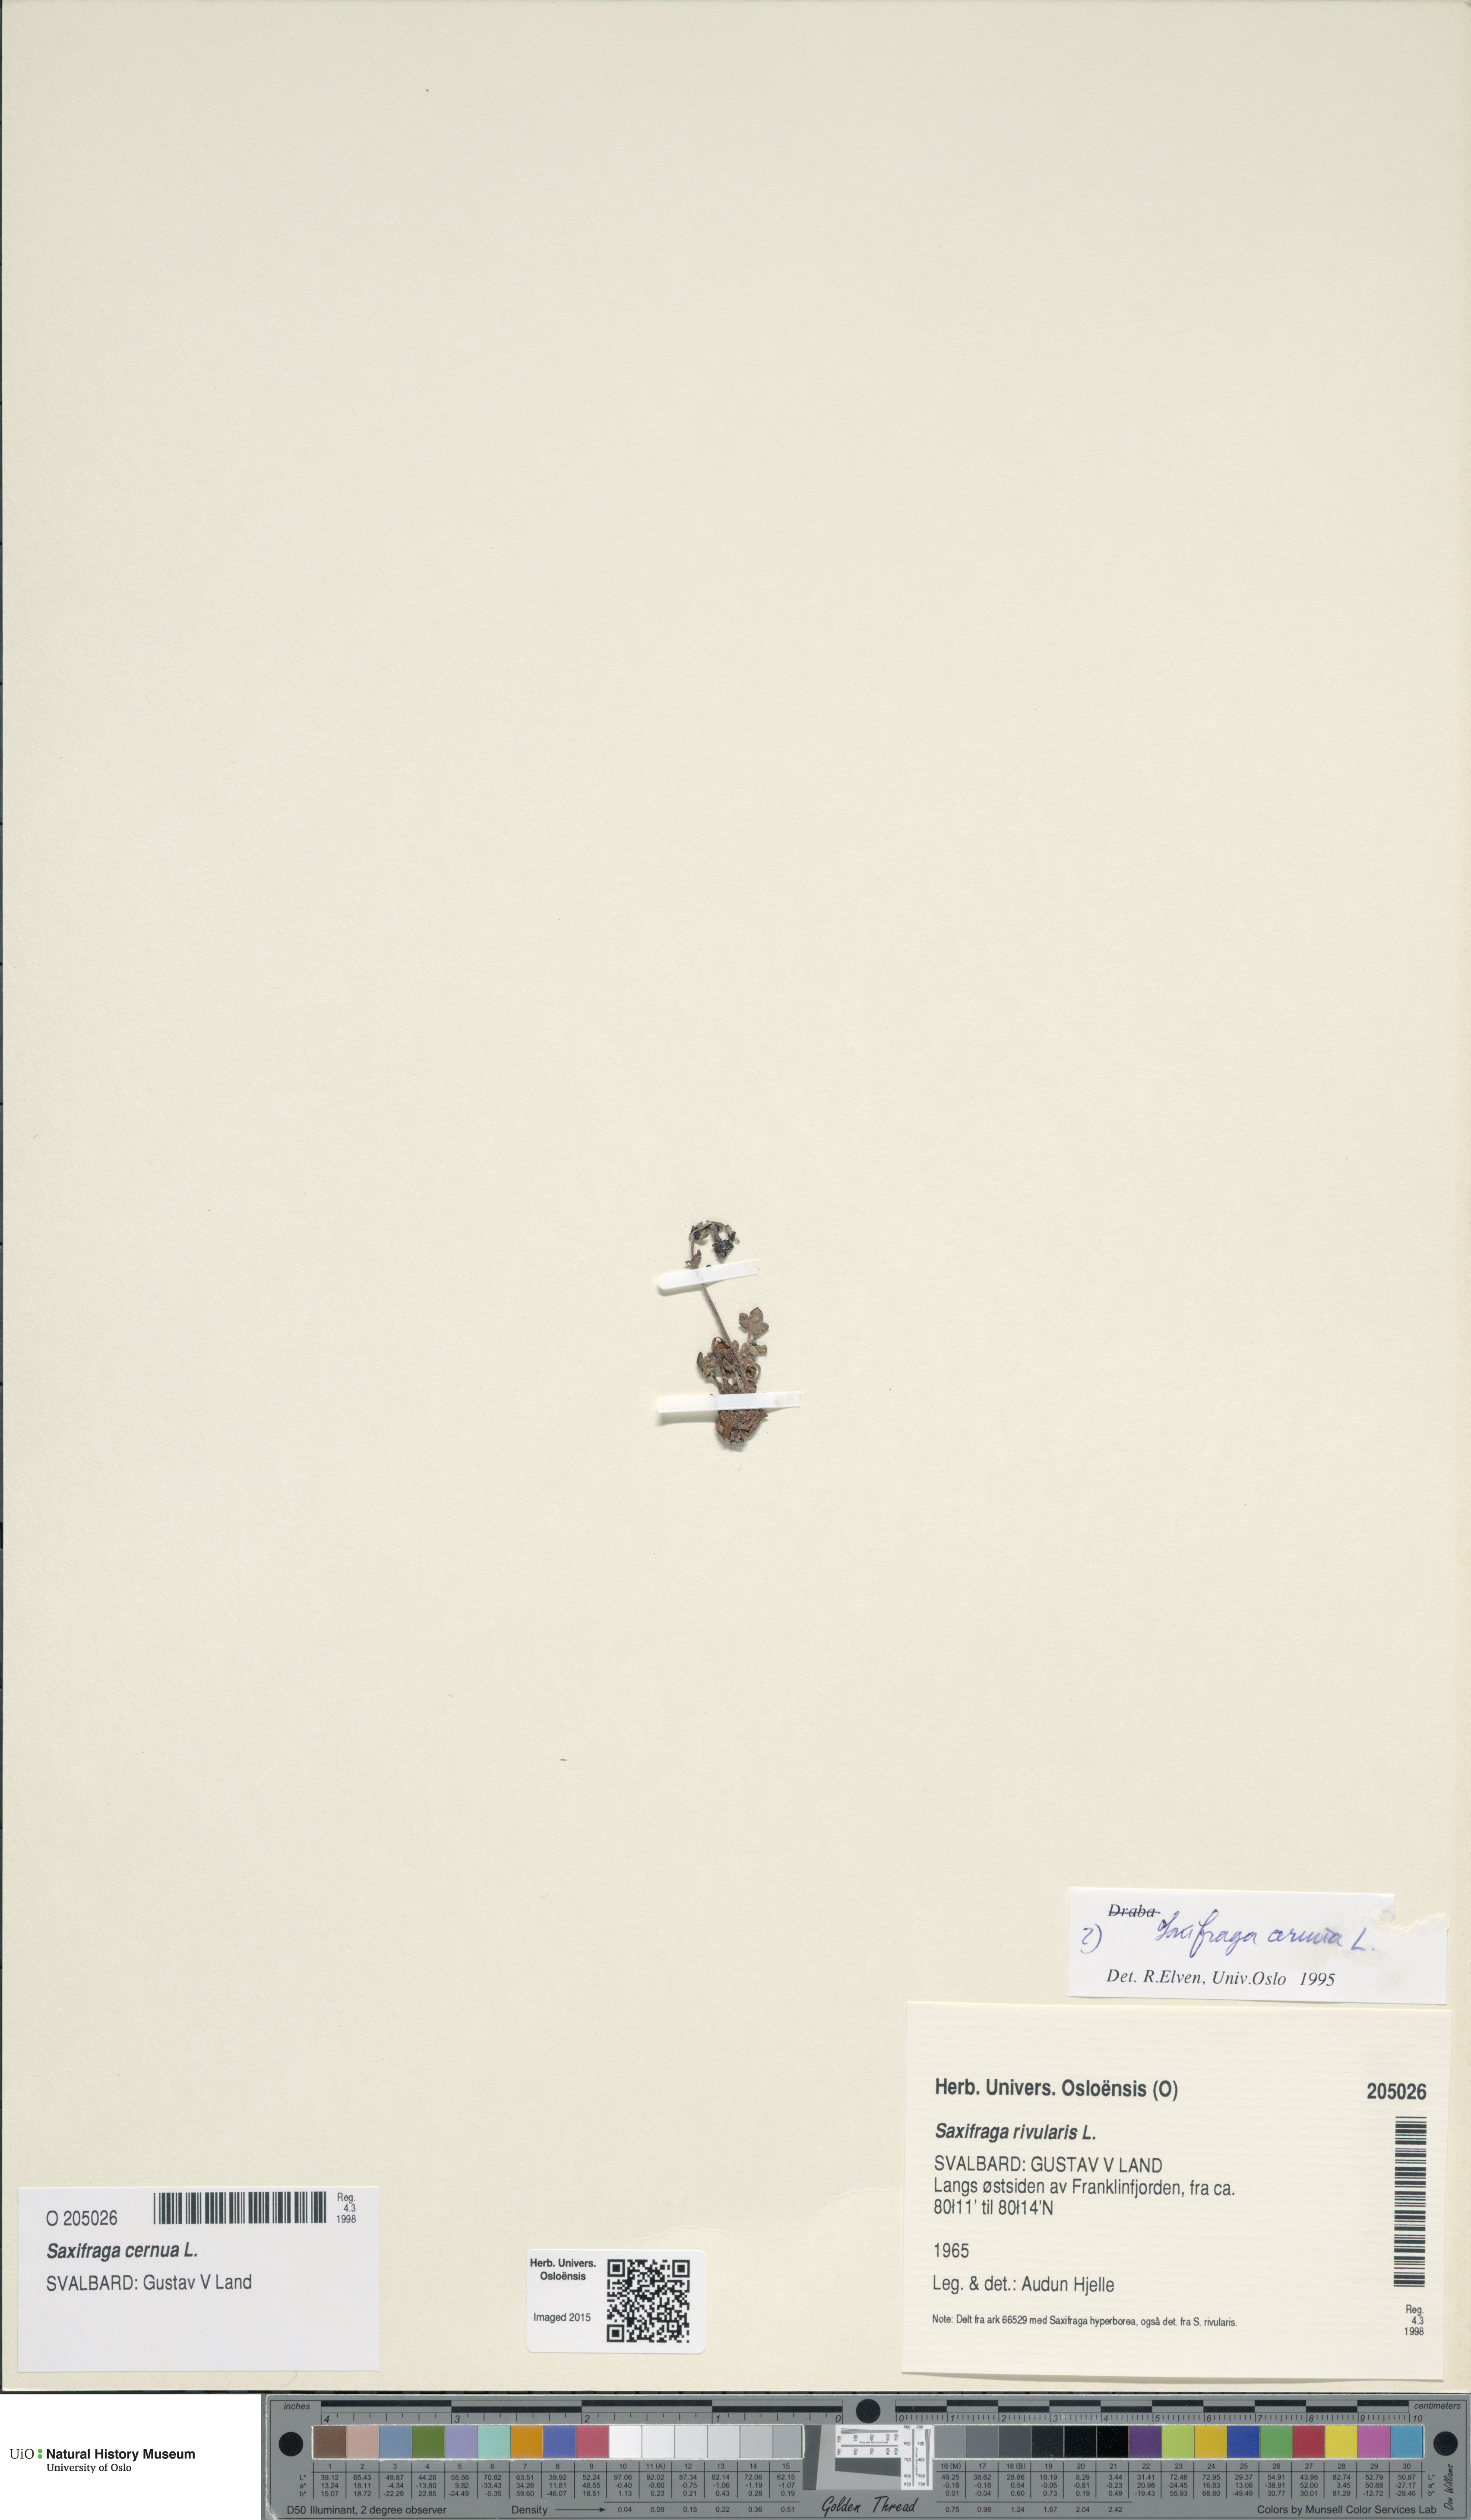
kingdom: Plantae
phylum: Tracheophyta
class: Magnoliopsida
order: Saxifragales
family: Saxifragaceae
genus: Saxifraga
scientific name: Saxifraga cernua
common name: Drooping saxifrage
